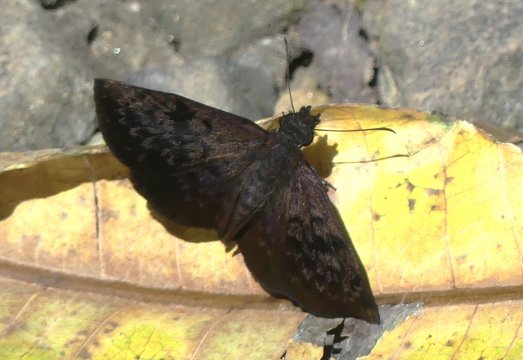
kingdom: Animalia
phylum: Arthropoda
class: Insecta
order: Lepidoptera
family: Hesperiidae
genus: Camptopleura
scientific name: Camptopleura auxo
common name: Auxo Bent-Skipper
